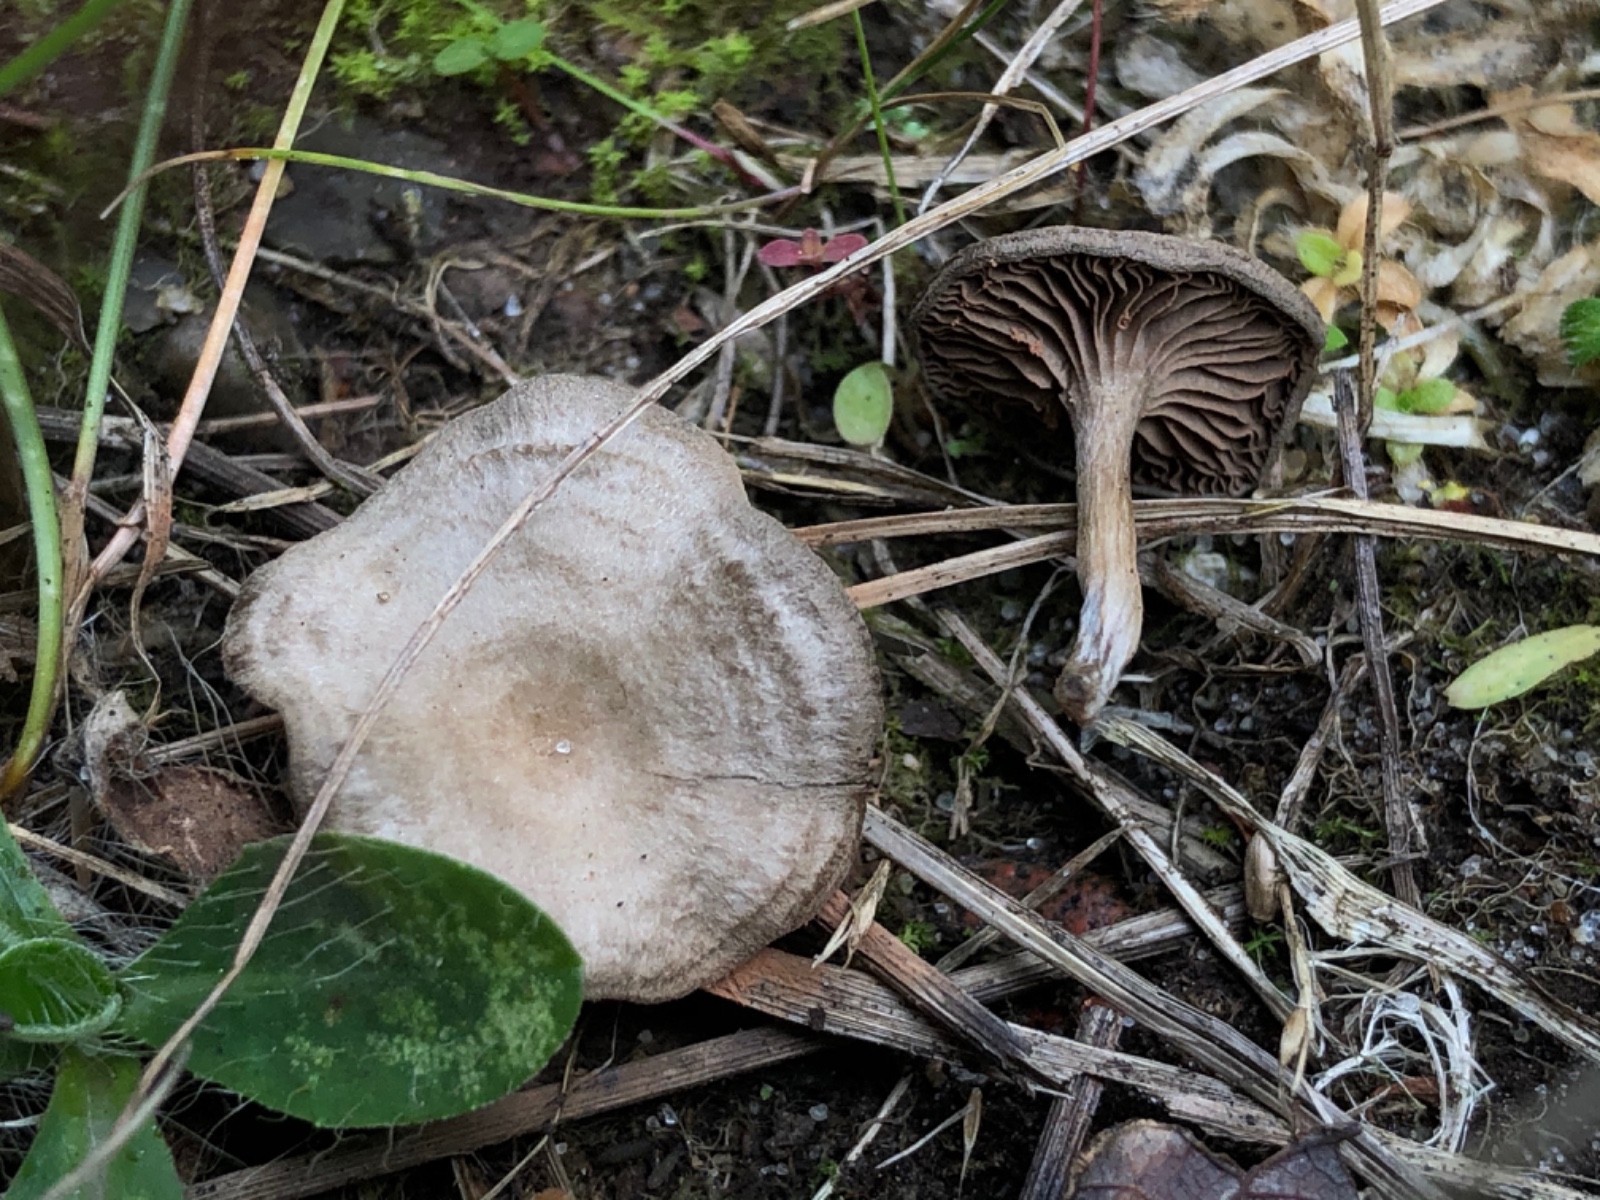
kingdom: Fungi
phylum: Basidiomycota
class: Agaricomycetes
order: Agaricales
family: Entolomataceae
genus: Entoloma
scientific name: Entoloma undatum
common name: bæltet rødblad
